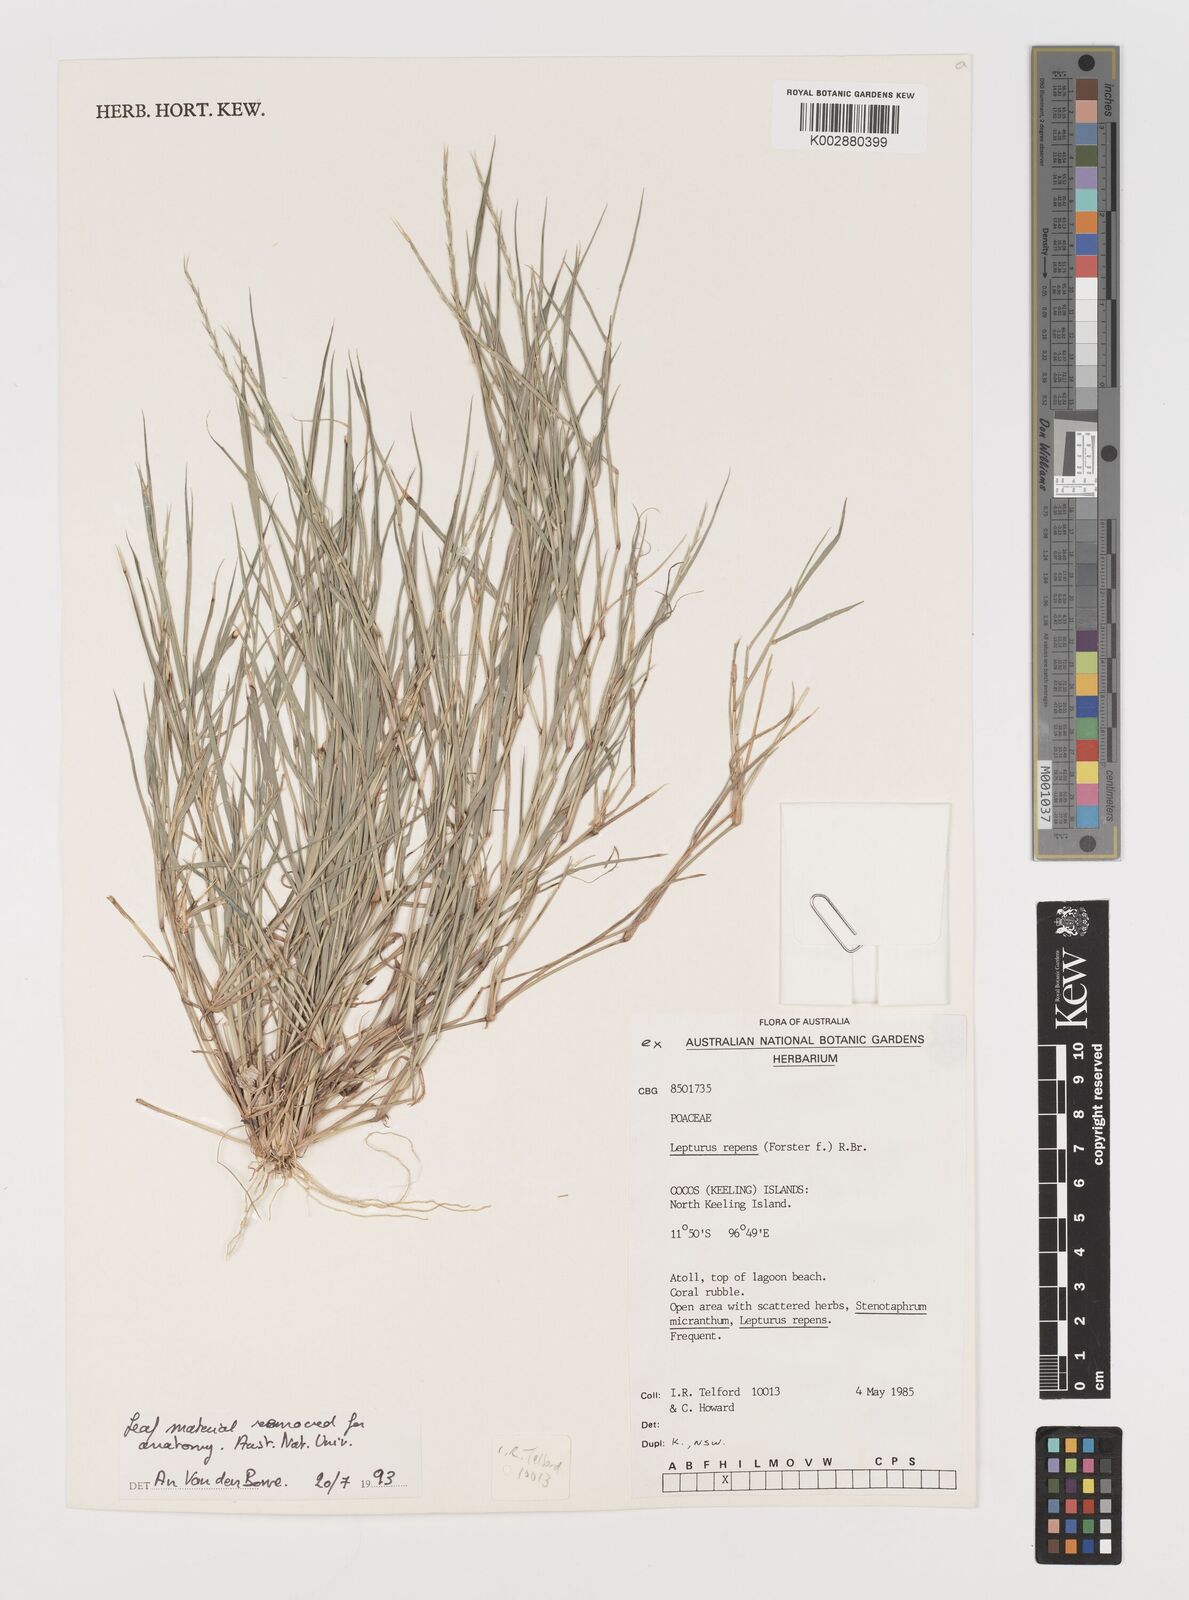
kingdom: Plantae
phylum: Tracheophyta
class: Liliopsida
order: Poales
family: Poaceae
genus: Lepturus
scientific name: Lepturus repens
